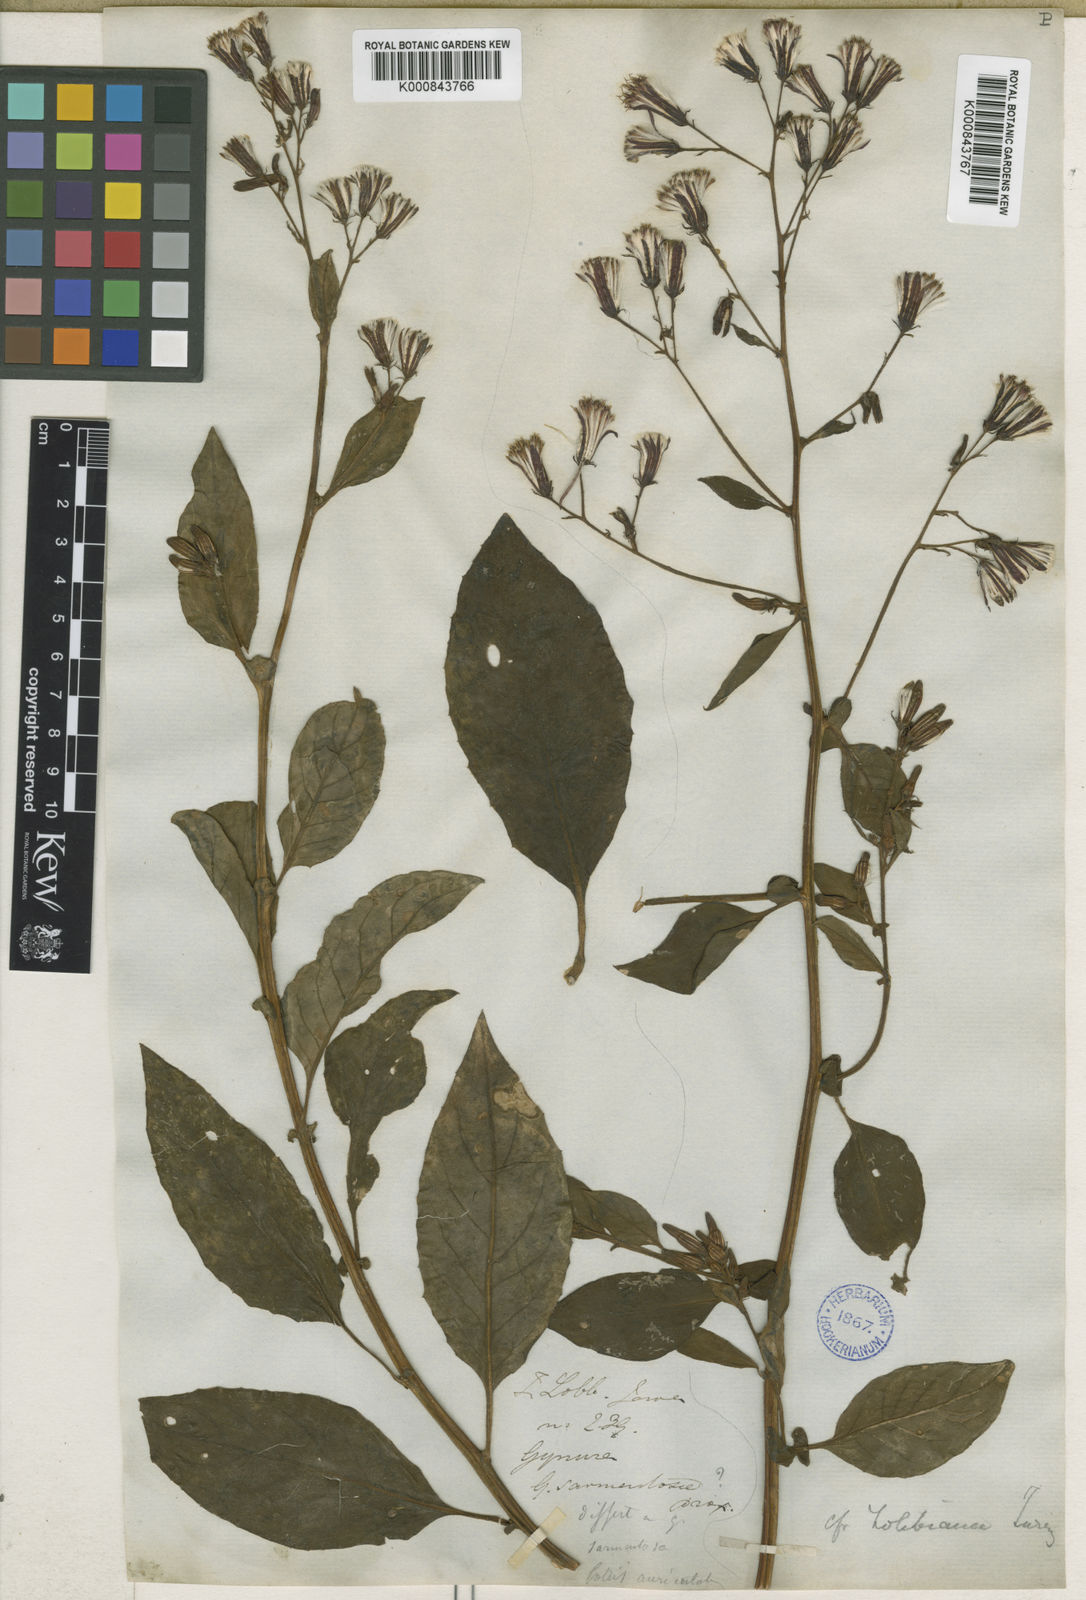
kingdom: Plantae
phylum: Tracheophyta
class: Magnoliopsida
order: Asterales
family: Asteraceae
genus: Gynura
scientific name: Gynura procumbens
